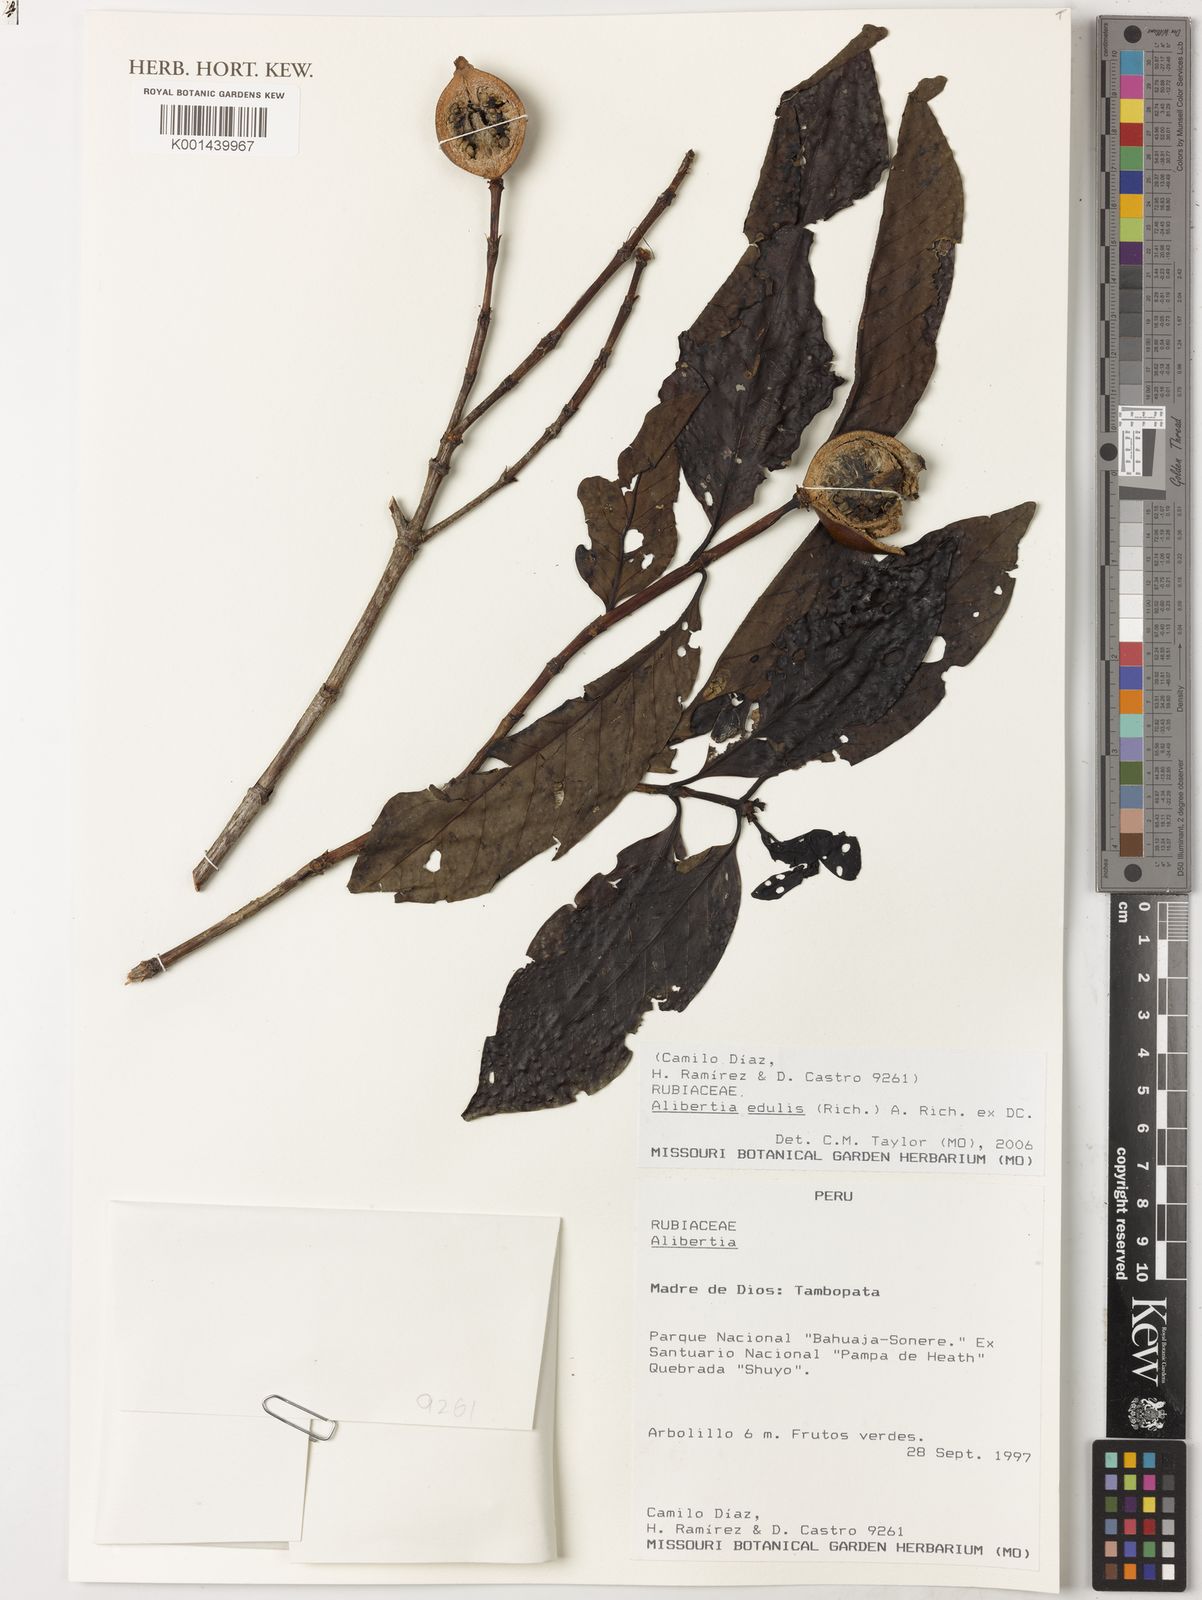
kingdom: Plantae
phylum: Tracheophyta
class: Magnoliopsida
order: Gentianales
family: Rubiaceae
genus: Alibertia
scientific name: Alibertia edulis
